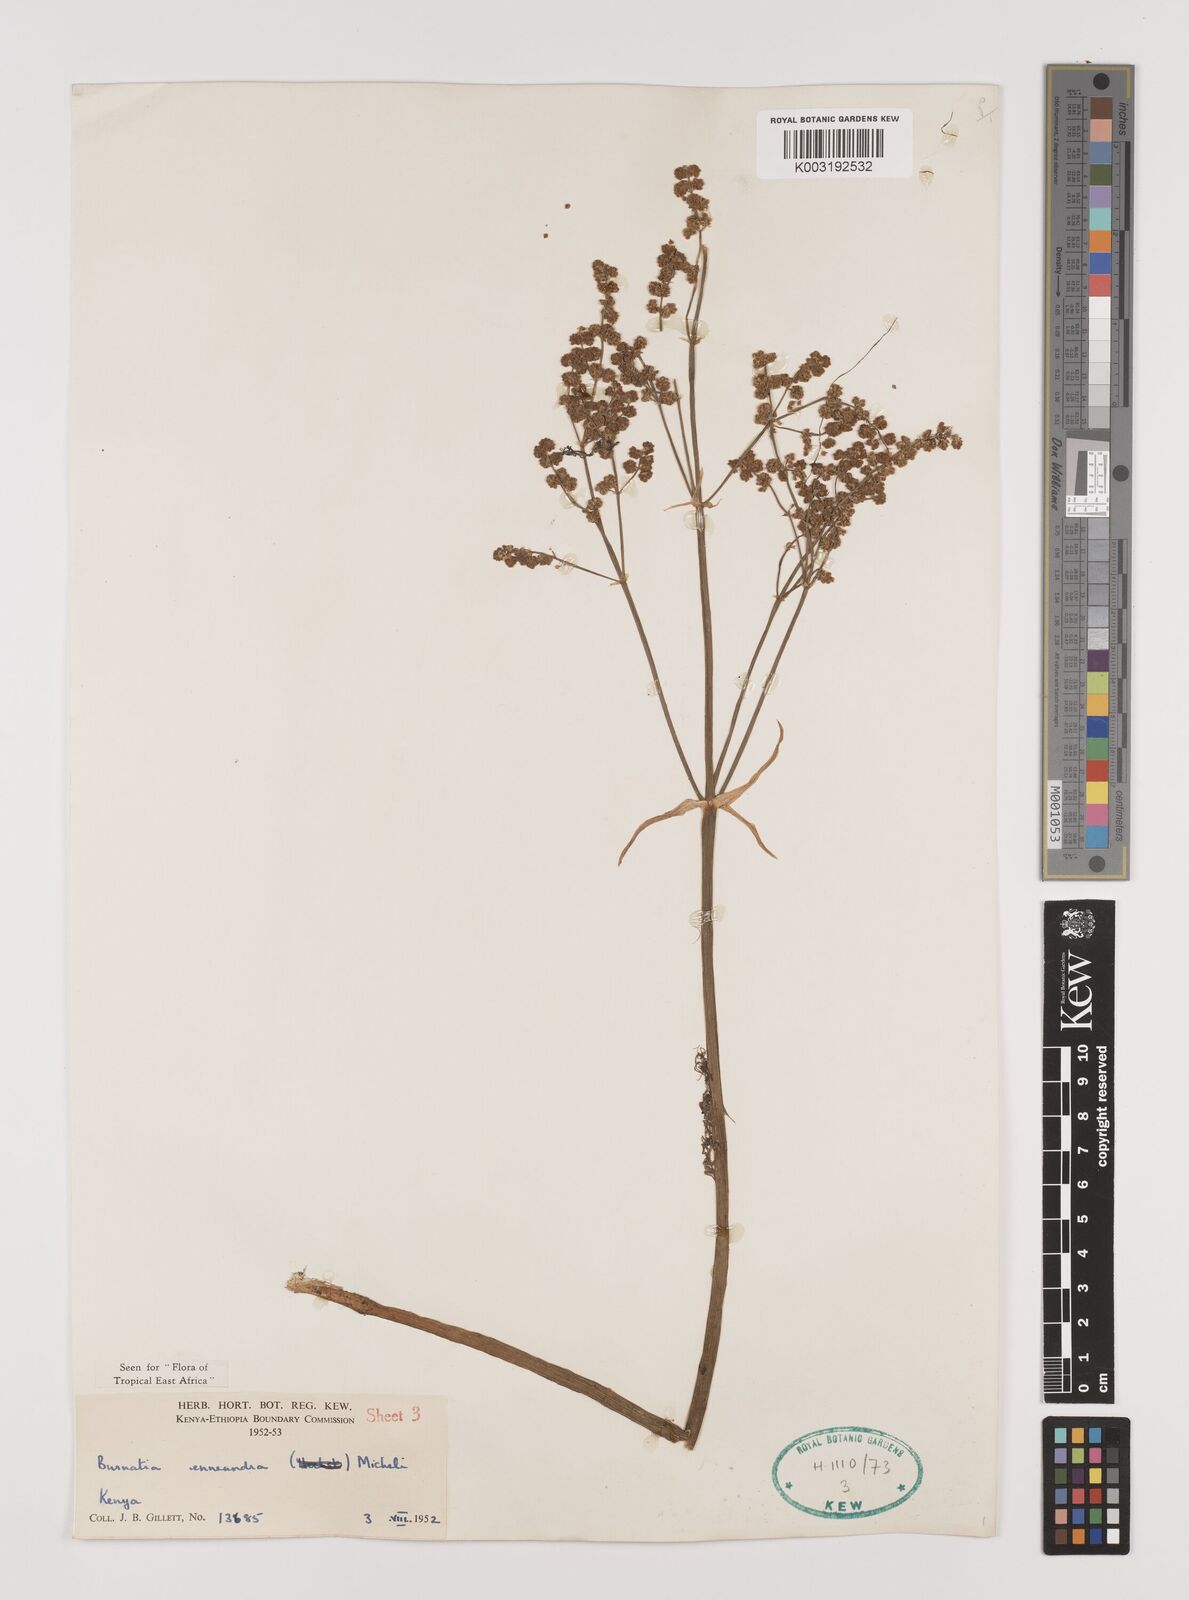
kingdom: Plantae
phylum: Tracheophyta
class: Liliopsida
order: Alismatales
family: Alismataceae
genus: Burnatia
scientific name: Burnatia enneandra
